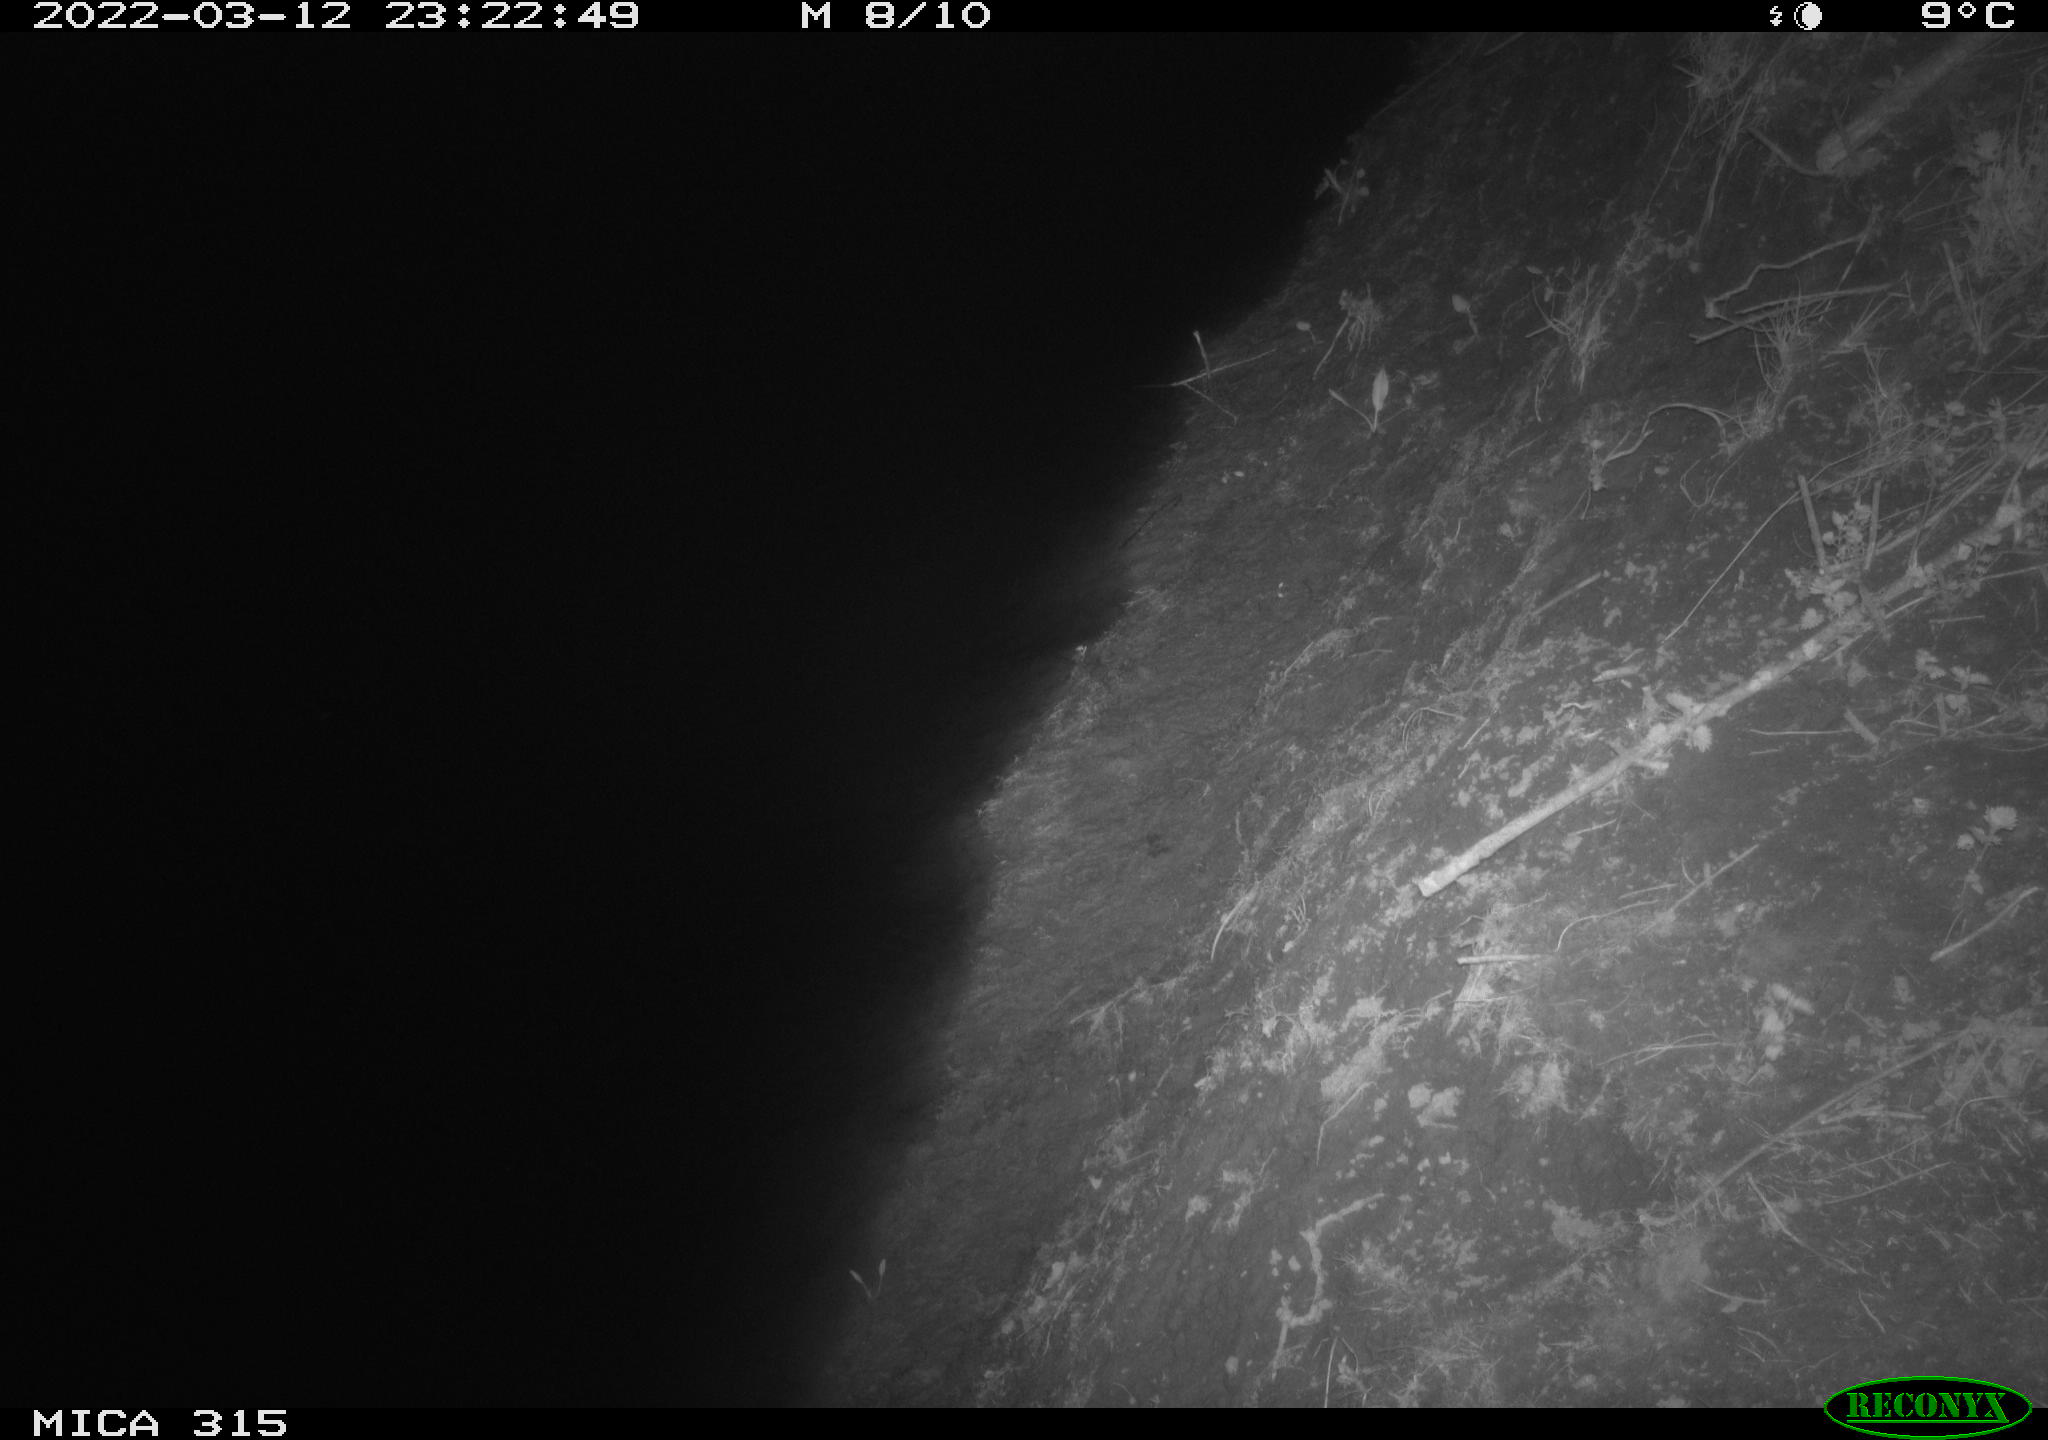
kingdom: Animalia
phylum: Chordata
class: Mammalia
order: Rodentia
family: Muridae
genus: Rattus
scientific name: Rattus norvegicus
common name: Brown rat
